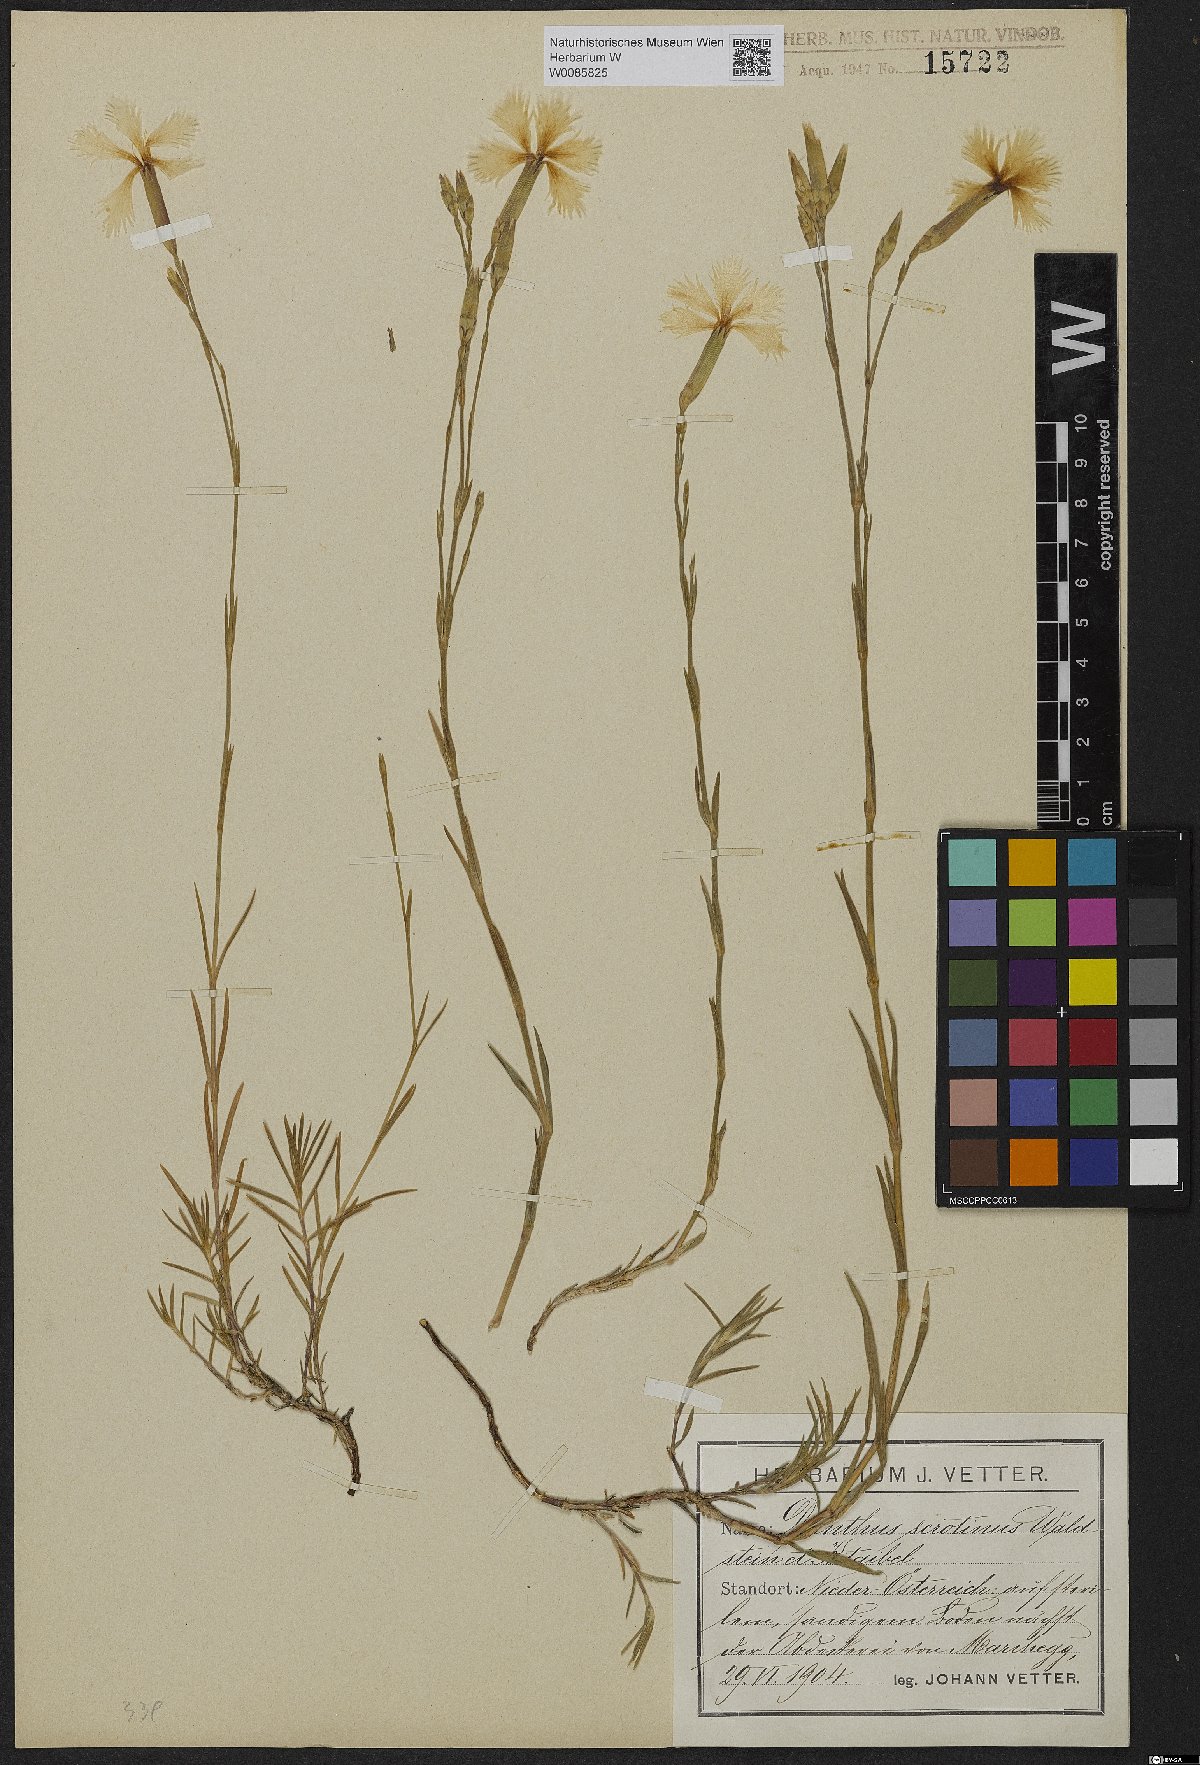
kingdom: Plantae
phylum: Tracheophyta
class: Magnoliopsida
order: Caryophyllales
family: Caryophyllaceae
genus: Dianthus
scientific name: Dianthus serotinus
